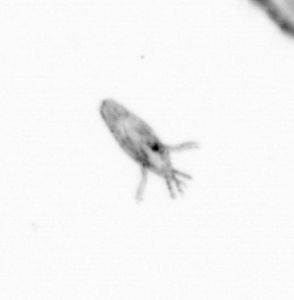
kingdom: Animalia
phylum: Arthropoda
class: Copepoda
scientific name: Copepoda
